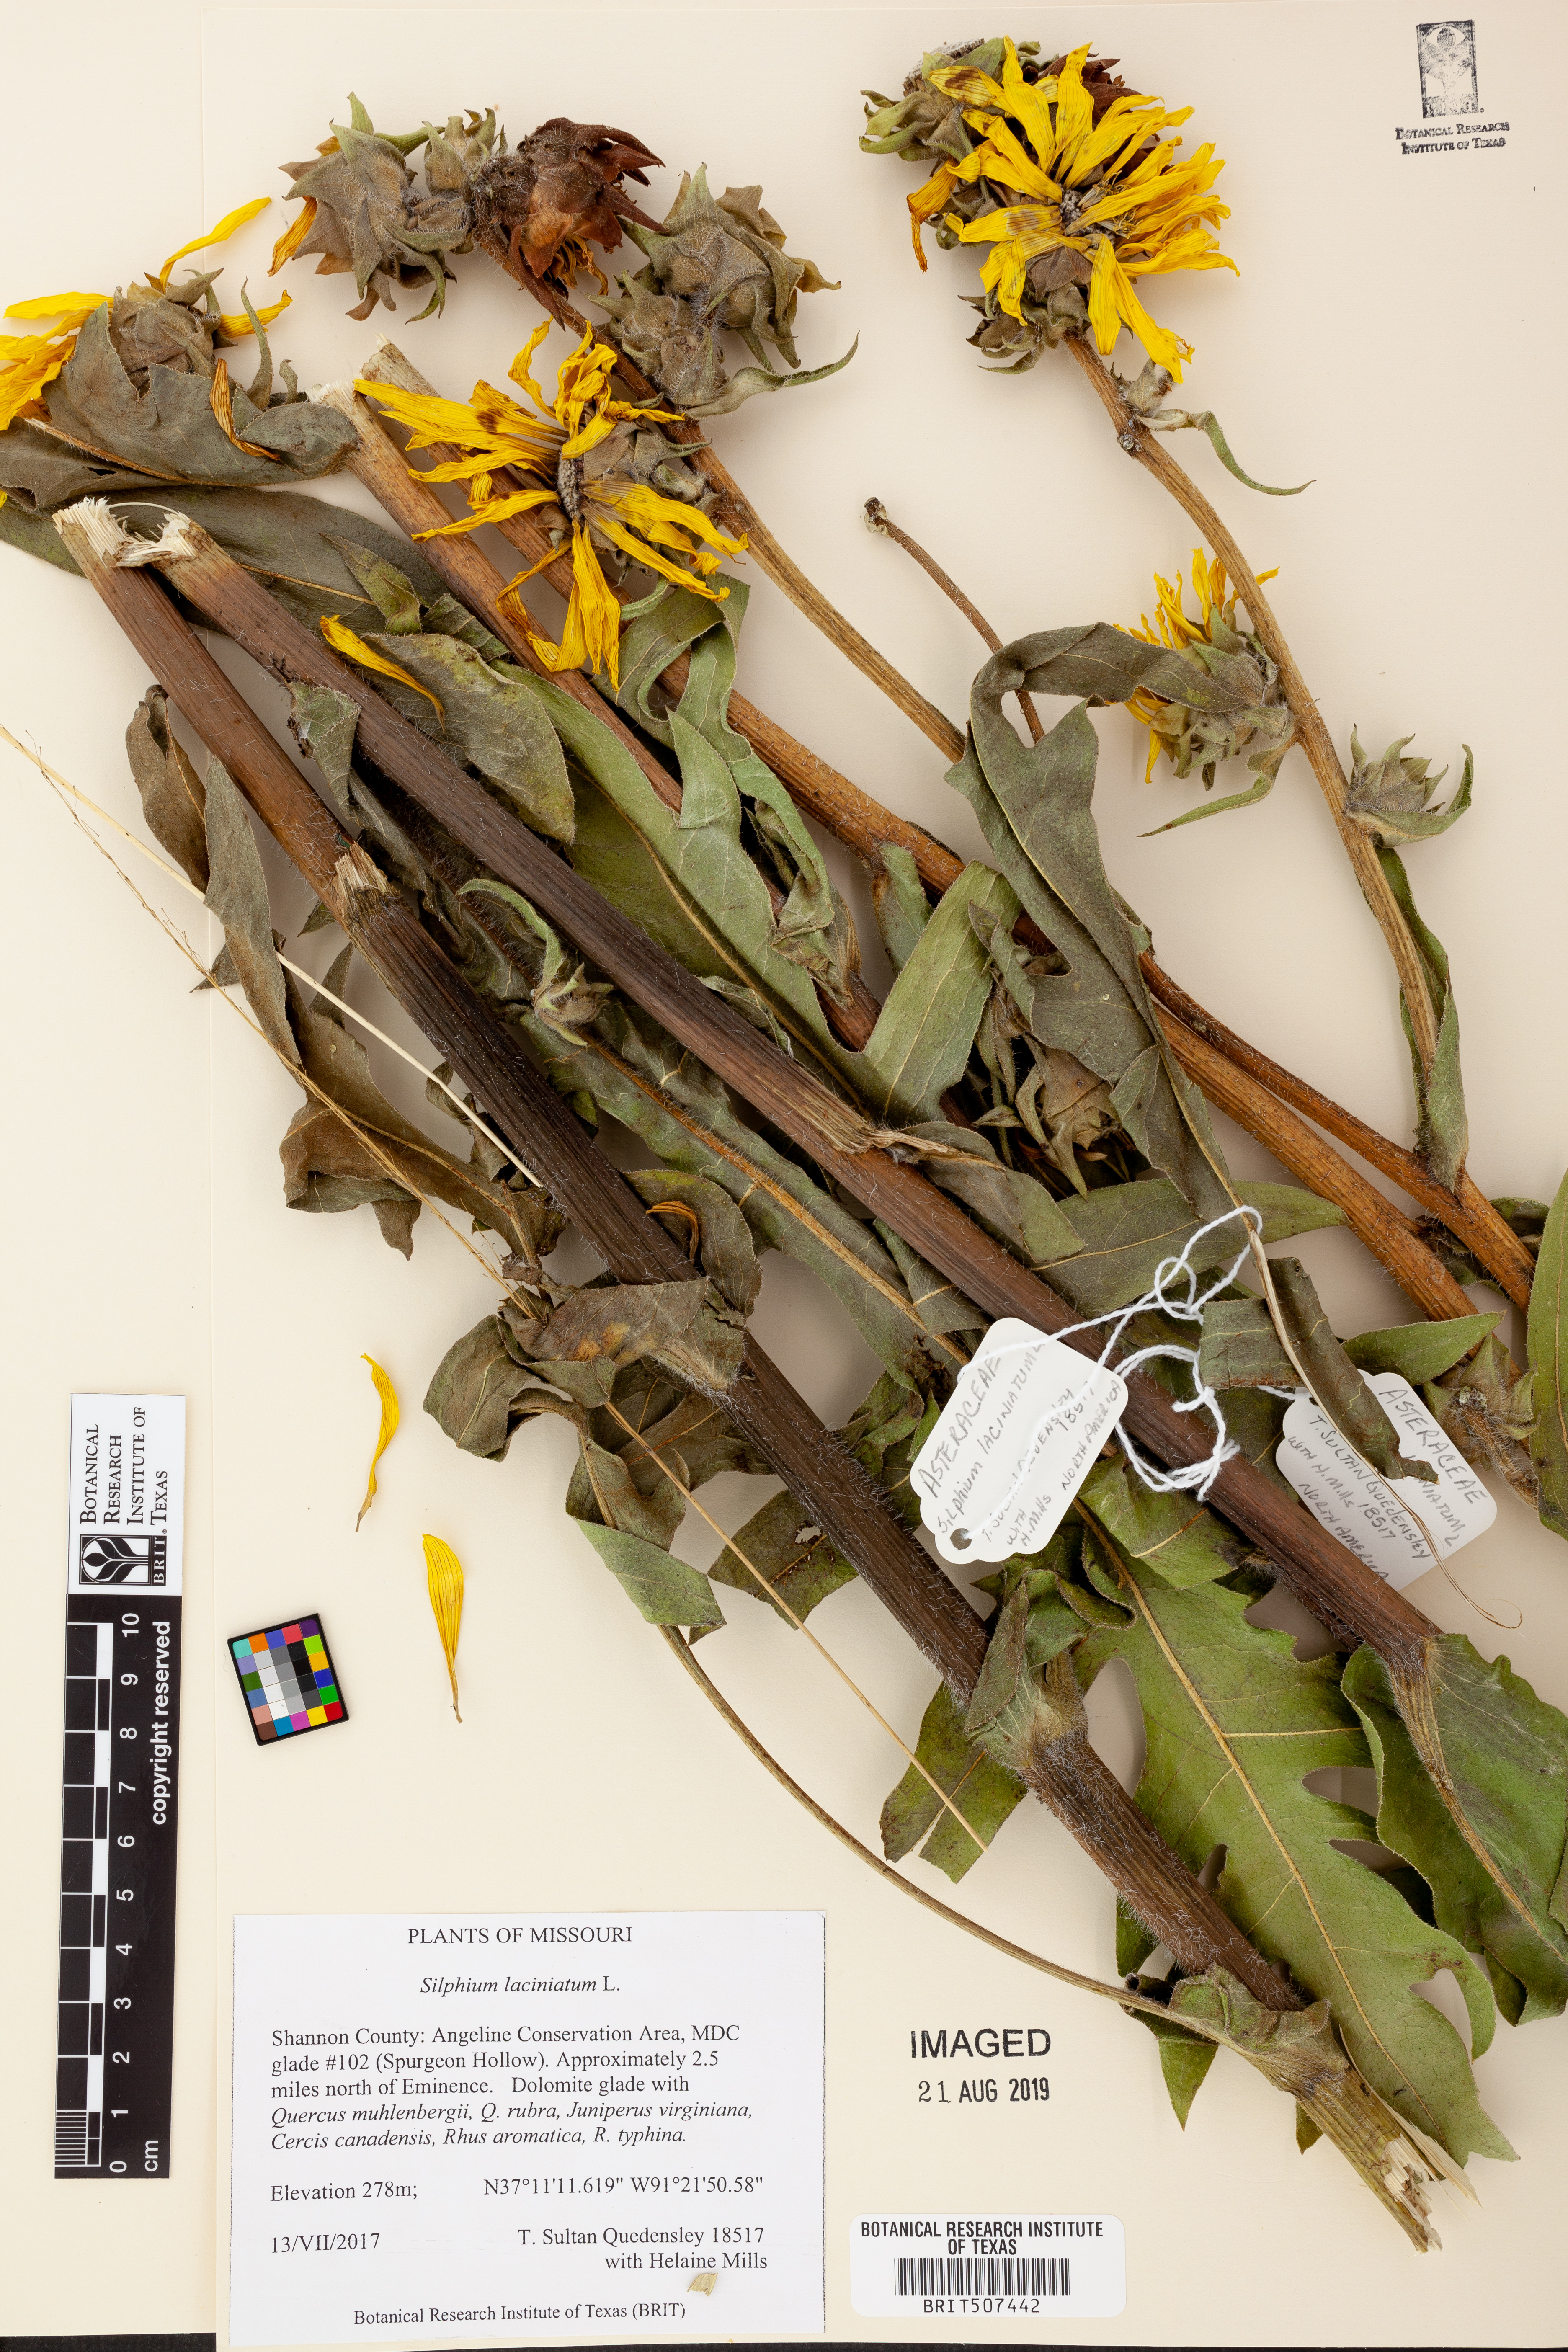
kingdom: Plantae
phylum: Tracheophyta
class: Magnoliopsida
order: Asterales
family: Asteraceae
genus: Silphium
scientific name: Silphium laciniatum
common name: Polarplant
